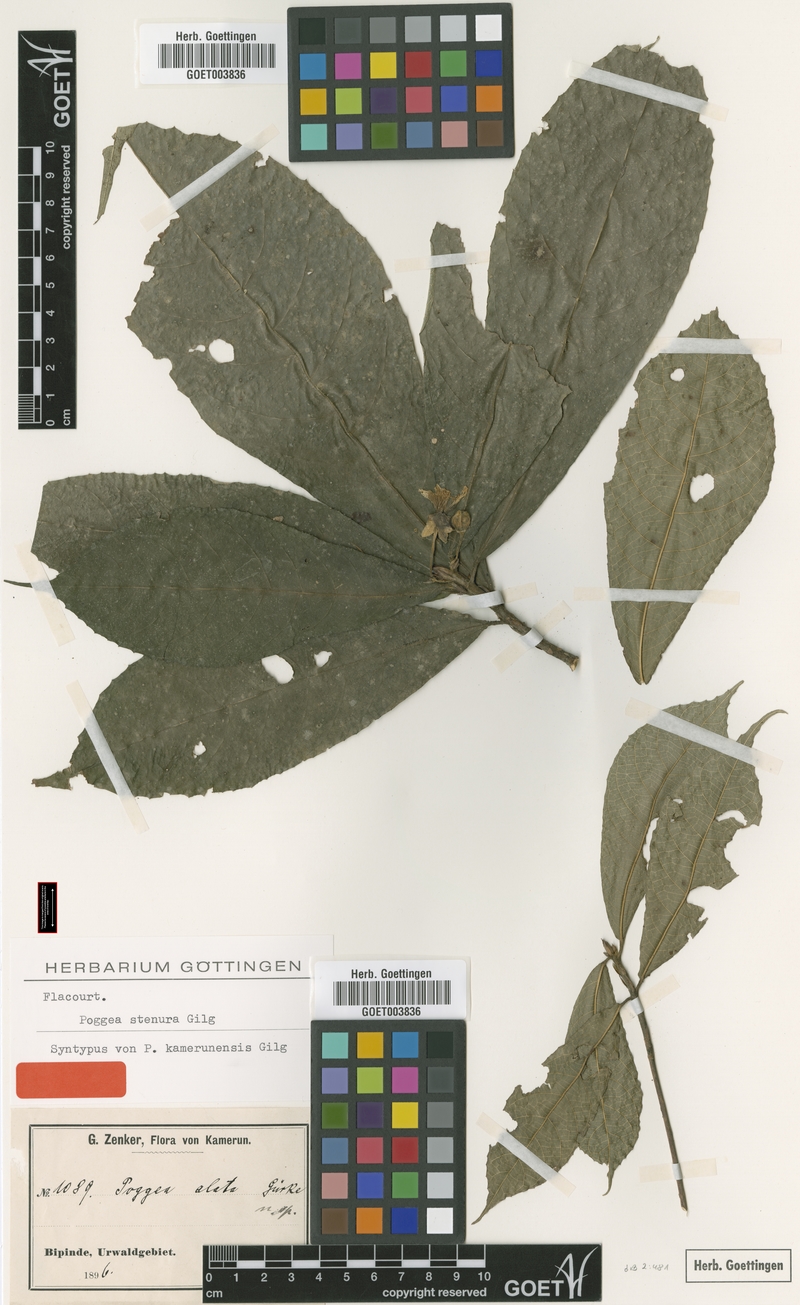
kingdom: Plantae
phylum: Tracheophyta
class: Magnoliopsida
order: Malpighiales
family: Achariaceae
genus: Poggea
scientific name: Poggea alata
